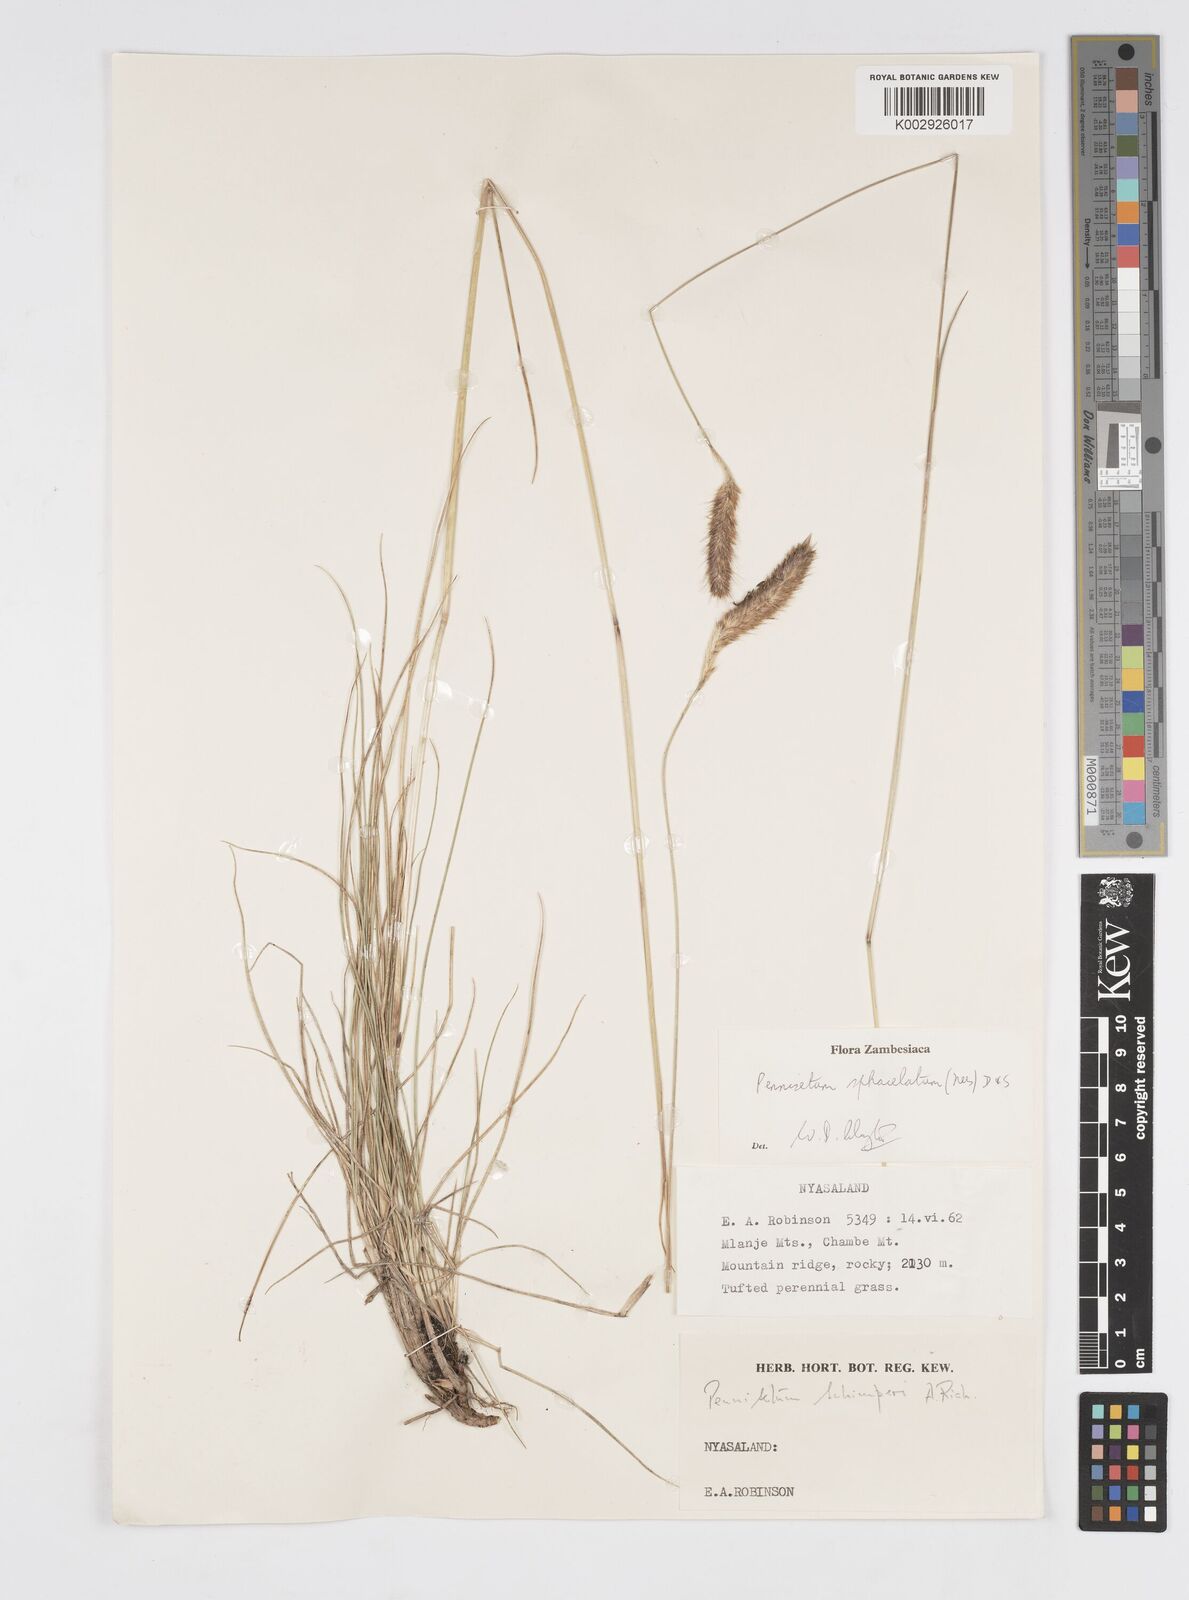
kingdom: Plantae
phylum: Tracheophyta
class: Liliopsida
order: Poales
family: Poaceae
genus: Cenchrus
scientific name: Cenchrus sphacelatus
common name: Bulgras
